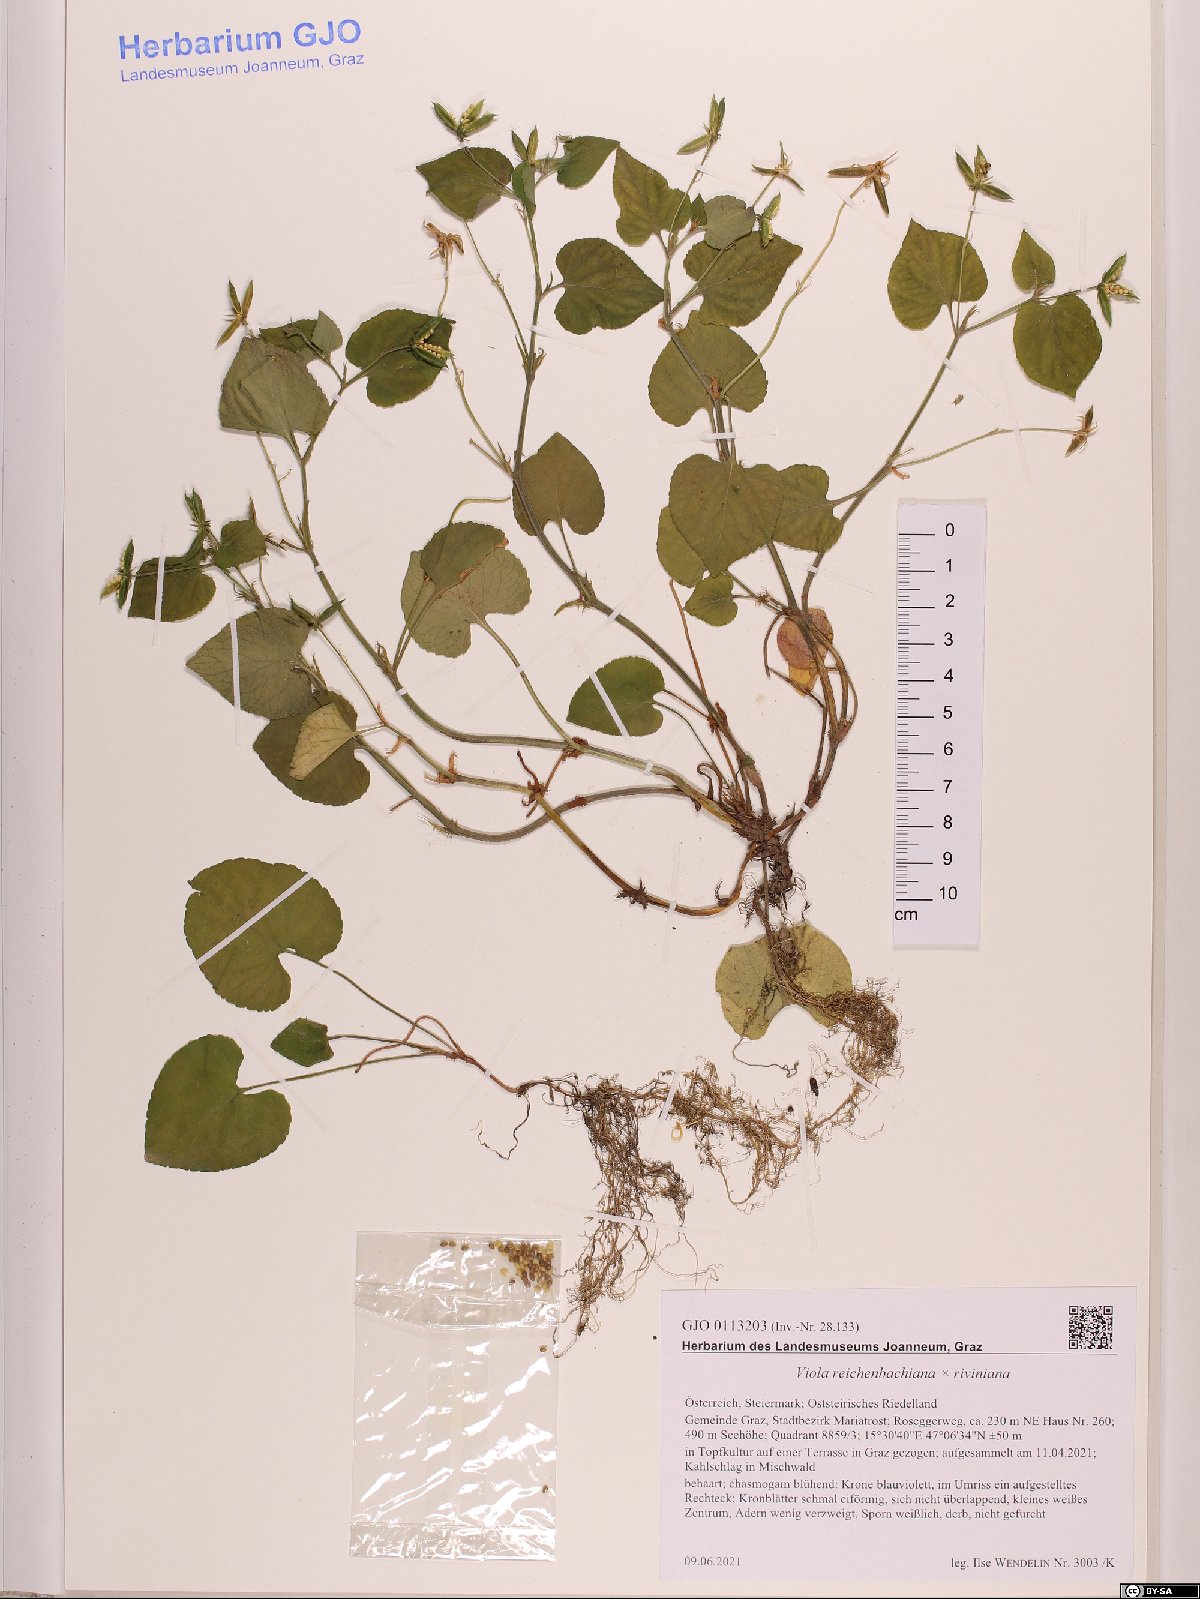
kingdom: Plantae
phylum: Tracheophyta
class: Magnoliopsida
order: Malpighiales
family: Violaceae
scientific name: Violaceae
